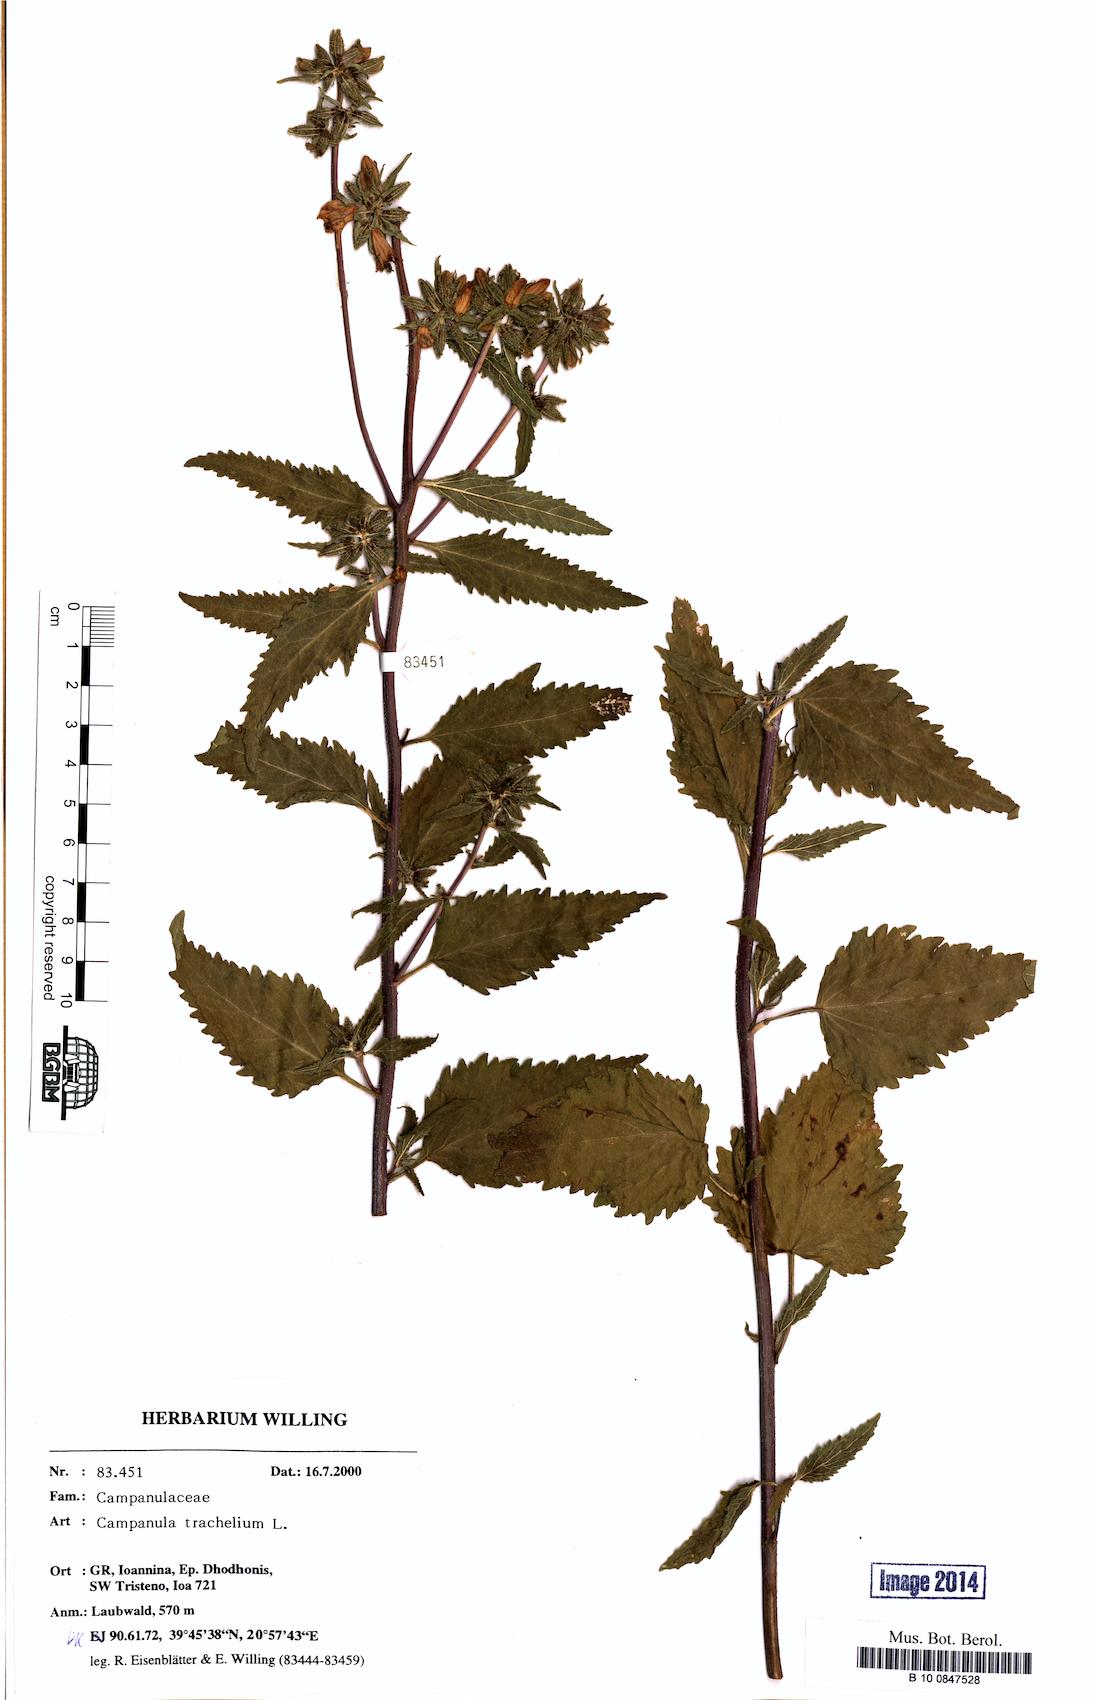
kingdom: Plantae
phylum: Tracheophyta
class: Magnoliopsida
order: Asterales
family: Campanulaceae
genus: Campanula
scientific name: Campanula trachelium
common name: Nettle-leaved bellflower
